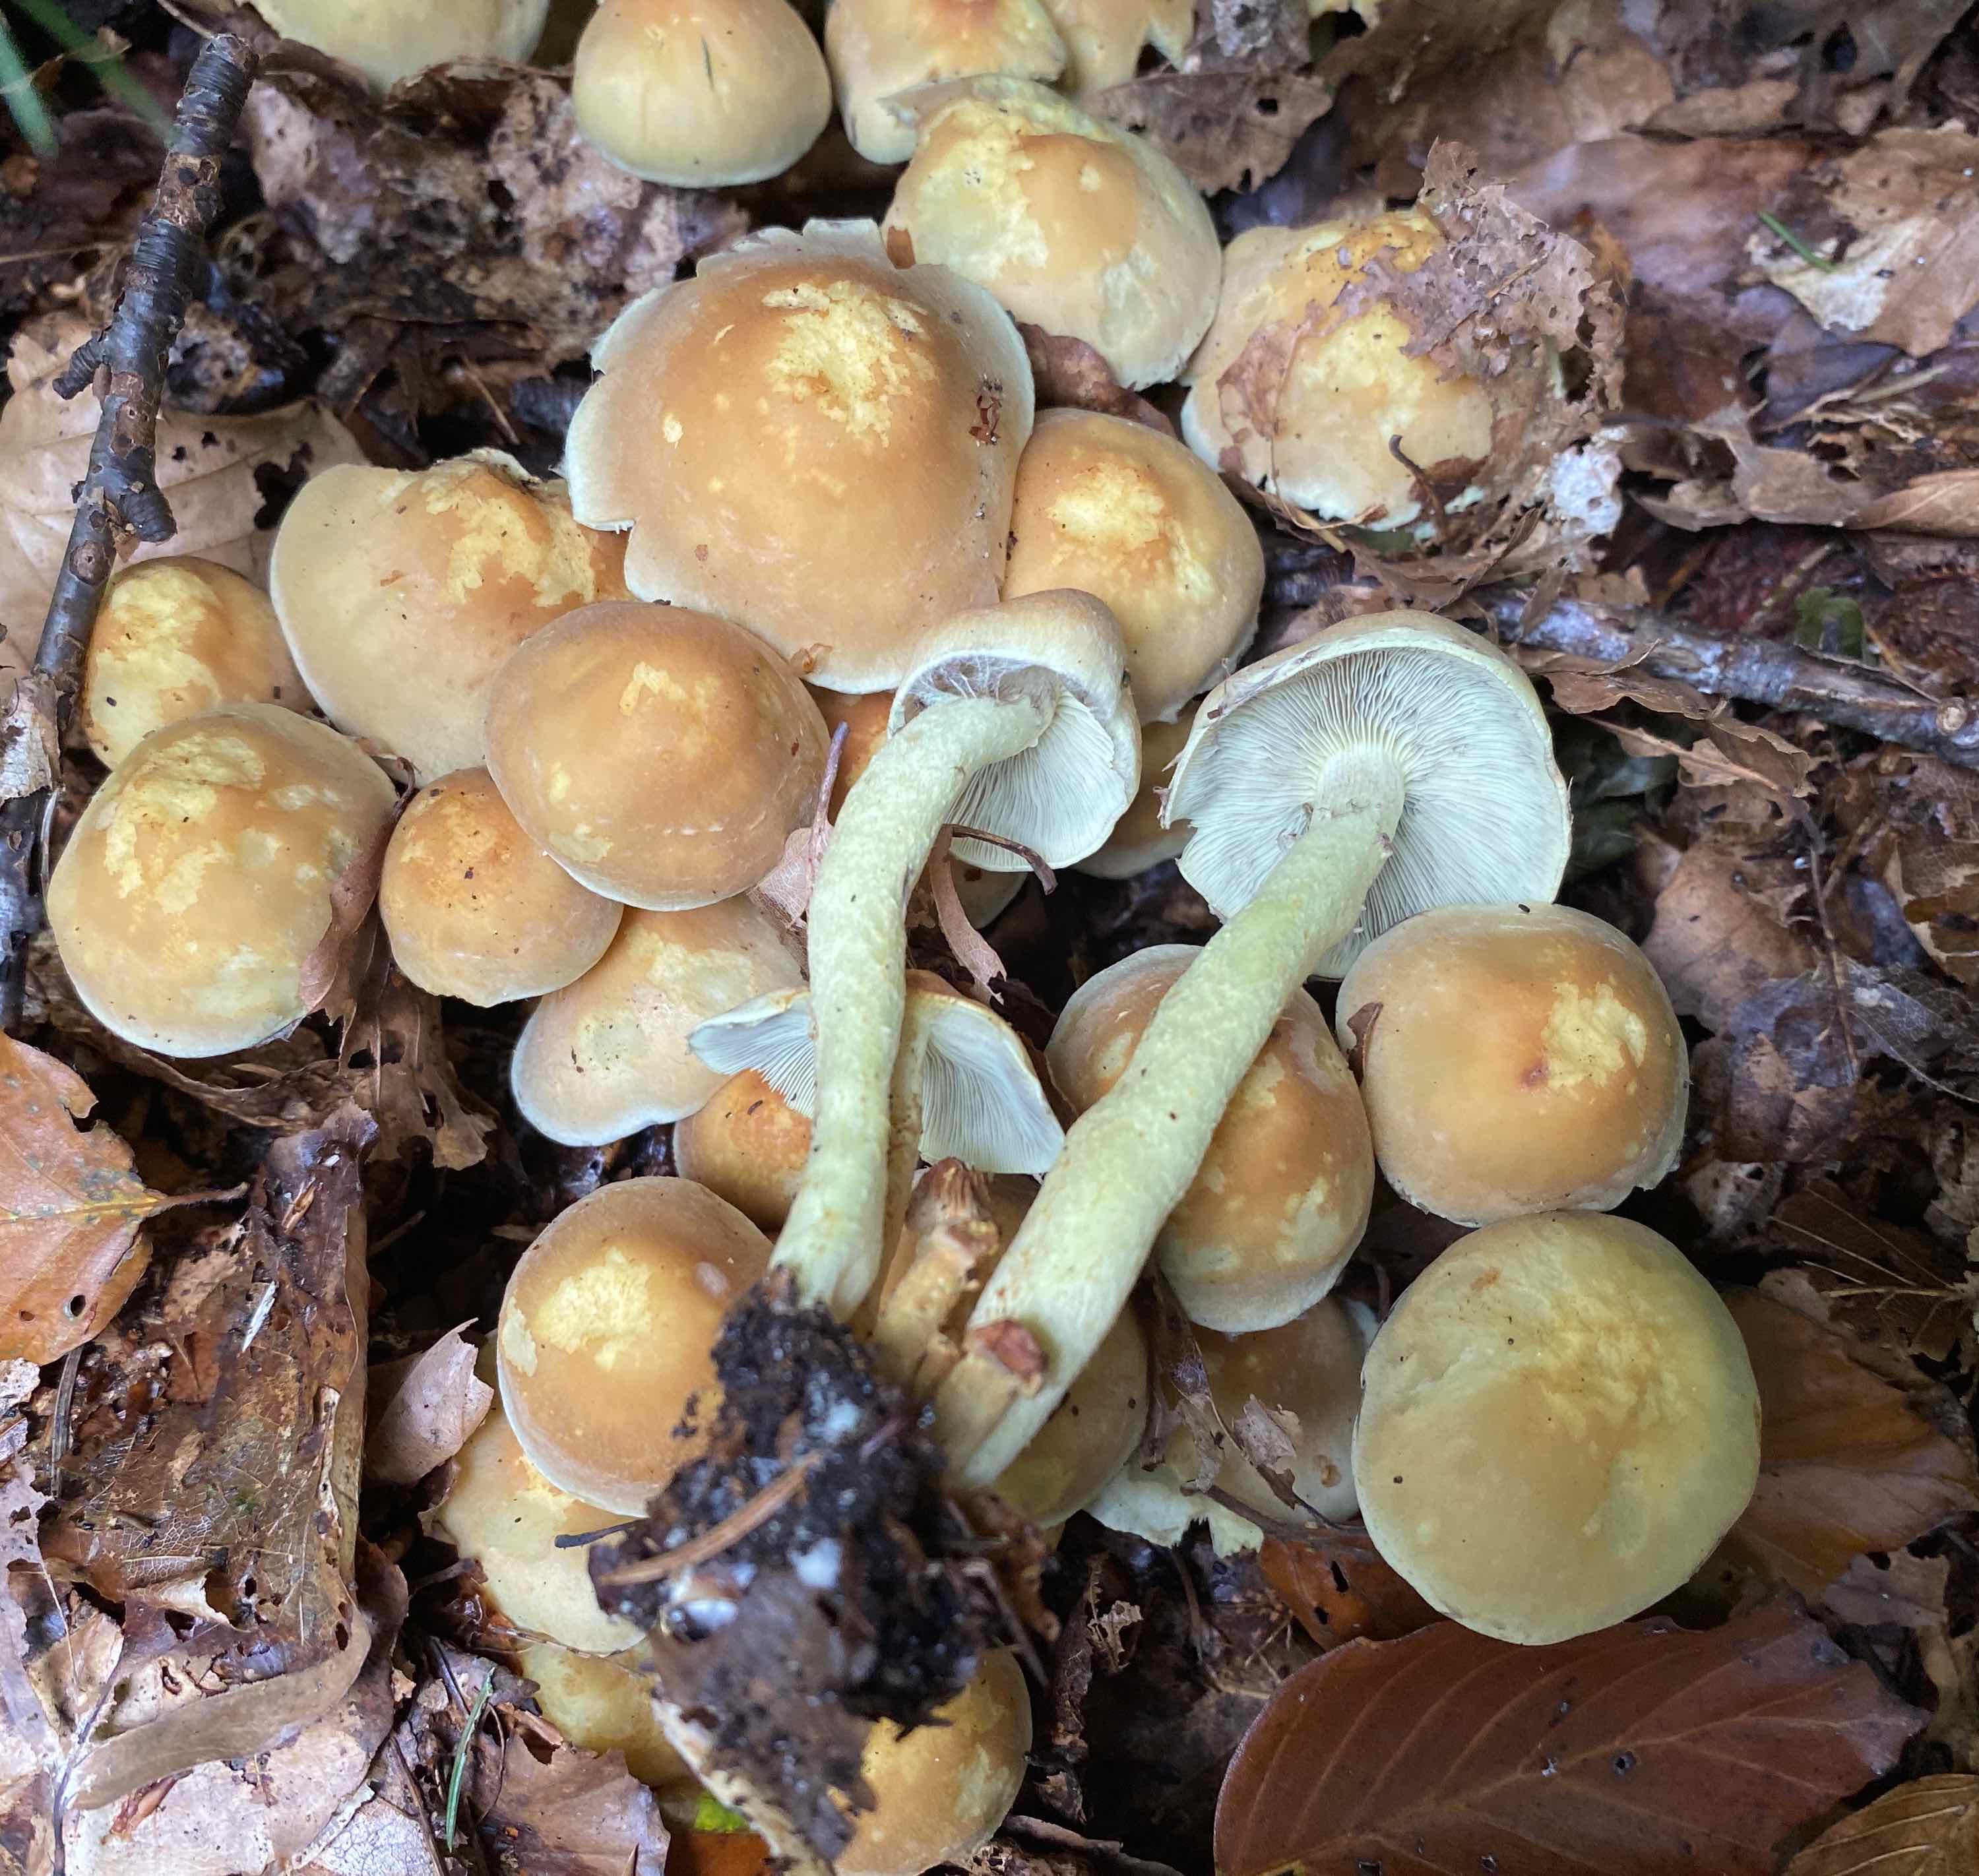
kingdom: Fungi
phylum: Basidiomycota
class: Agaricomycetes
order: Agaricales
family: Strophariaceae
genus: Hypholoma
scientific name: Hypholoma fasciculare
